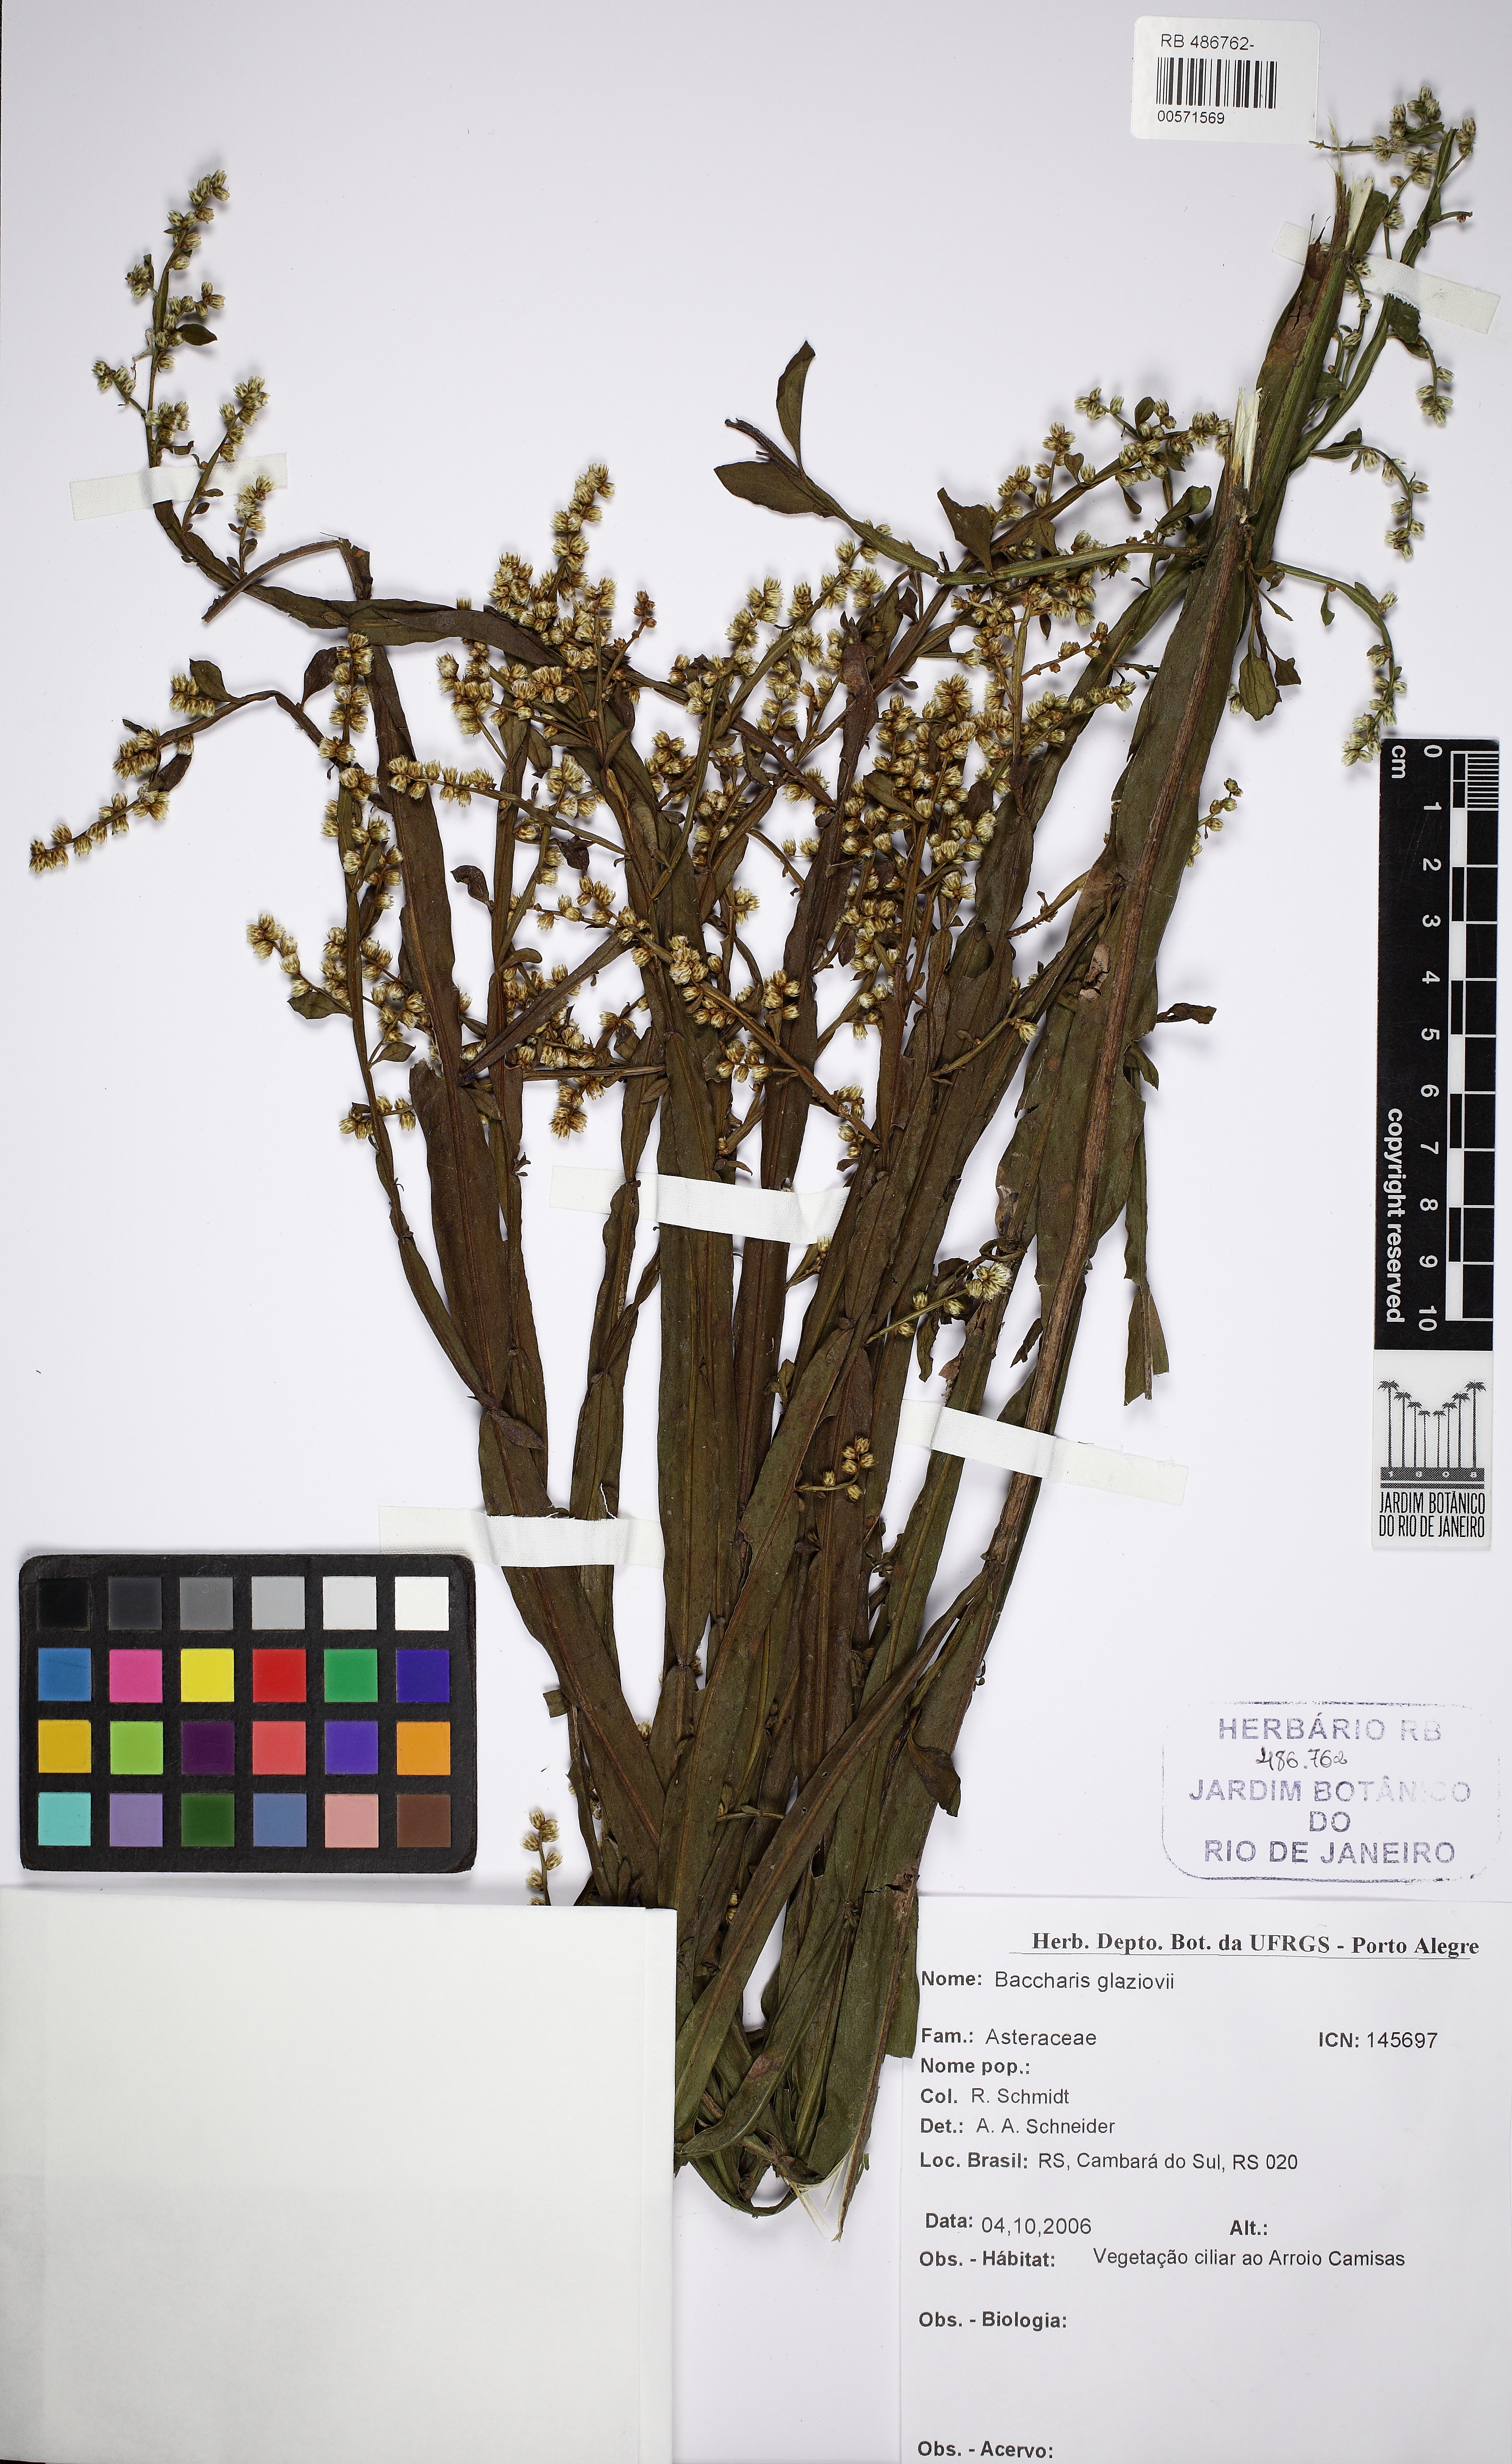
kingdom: Plantae
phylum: Tracheophyta
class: Magnoliopsida
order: Asterales
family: Asteraceae
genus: Baccharis
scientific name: Baccharis glaziovii
